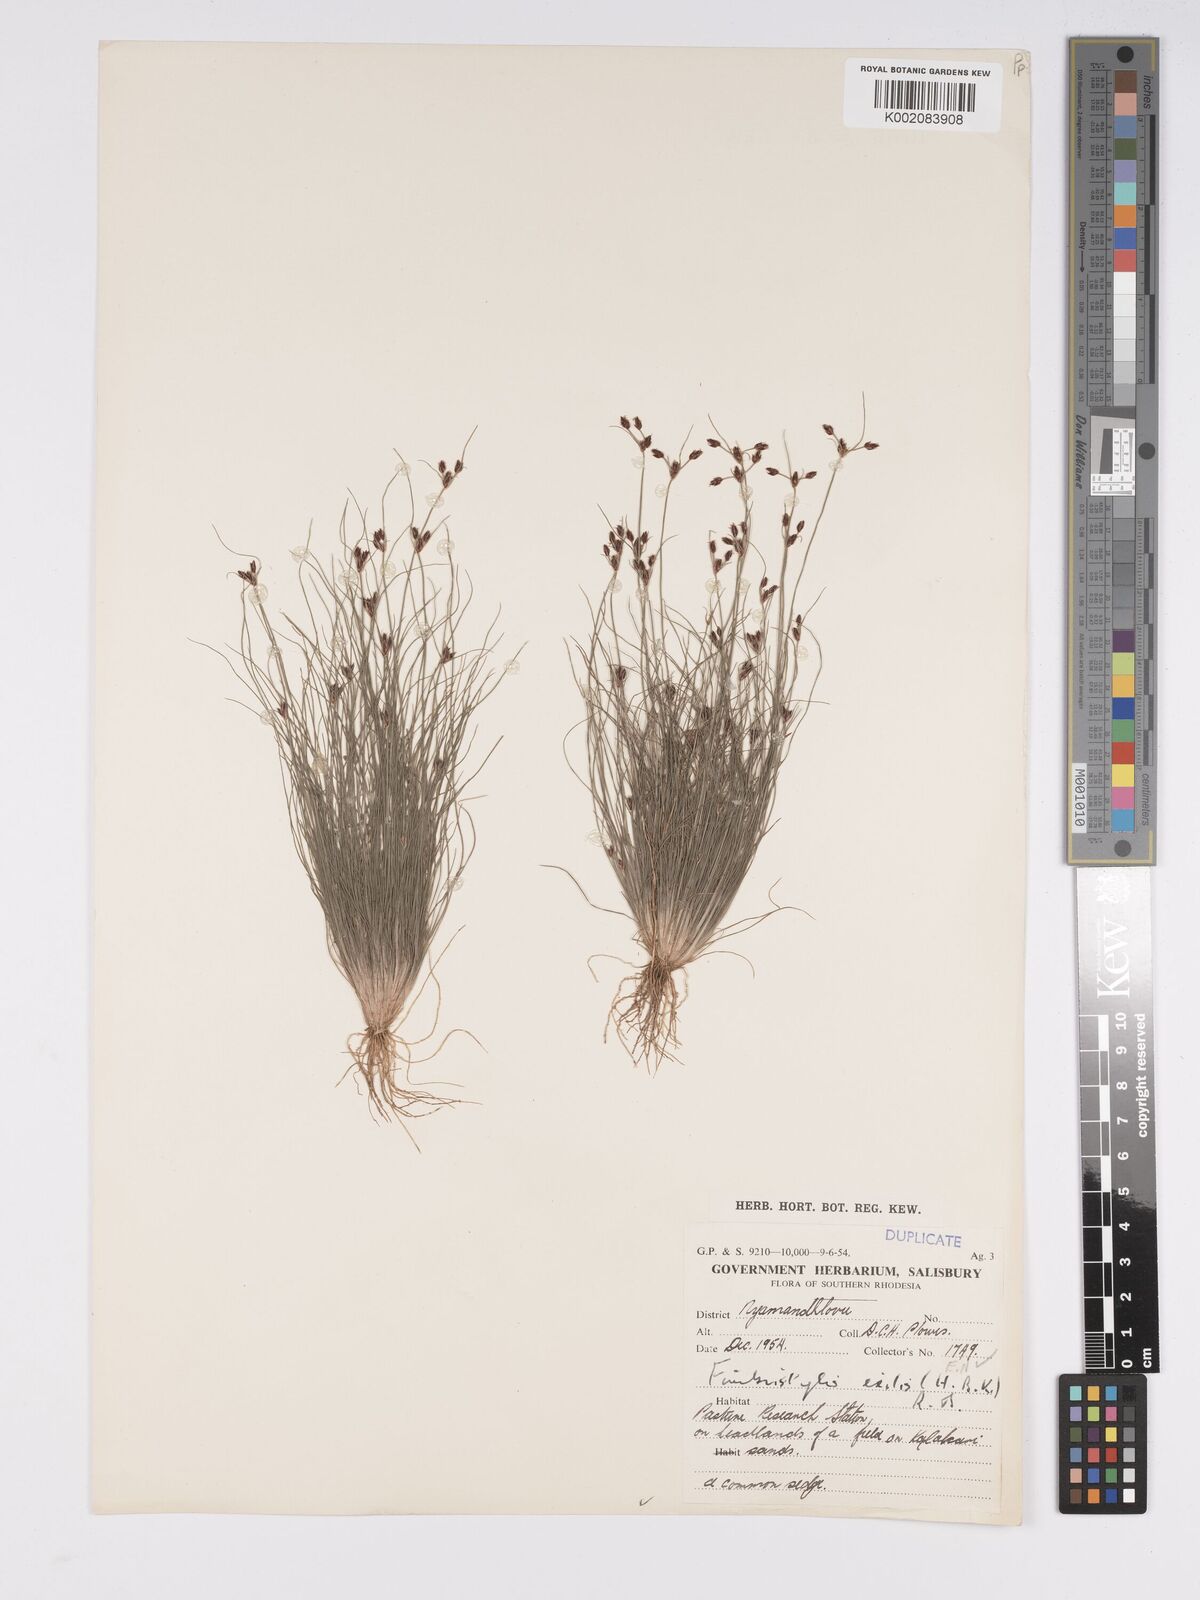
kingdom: Plantae
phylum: Tracheophyta
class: Liliopsida
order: Poales
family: Cyperaceae
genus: Bulbostylis
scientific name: Bulbostylis hispidula
